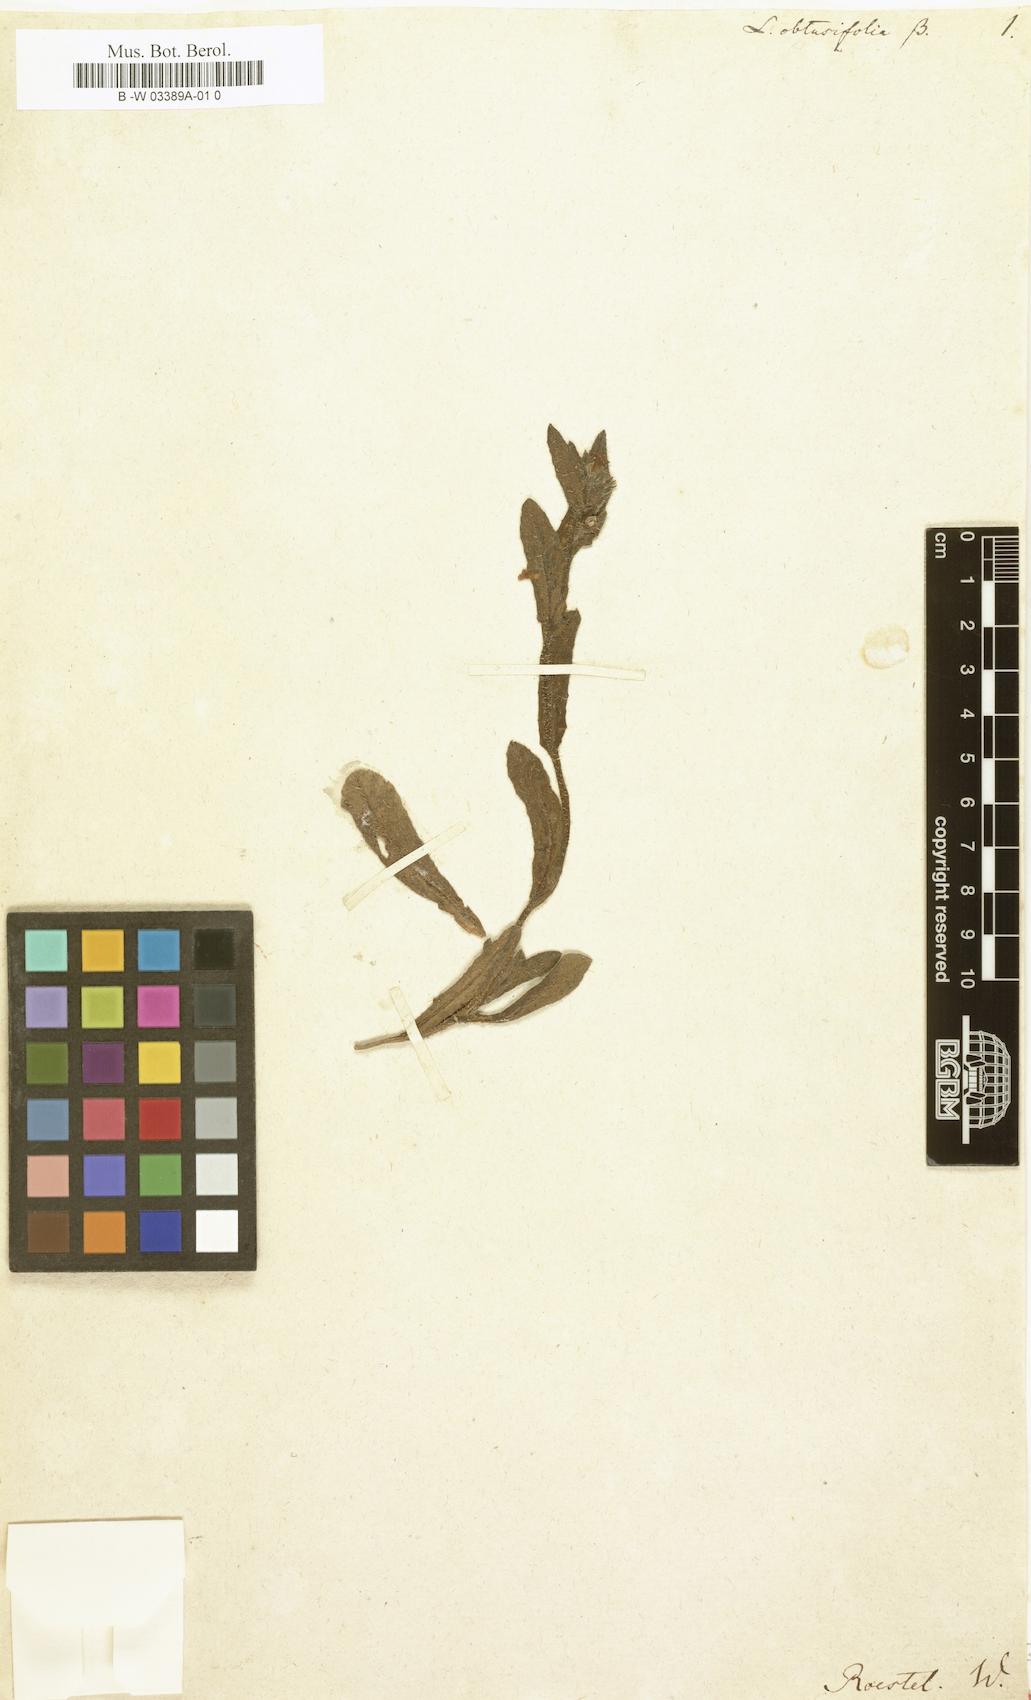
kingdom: Plantae
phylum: Tracheophyta
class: Magnoliopsida
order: Boraginales
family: Boraginaceae
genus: Melanortocarya
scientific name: Melanortocarya obtusifolia
